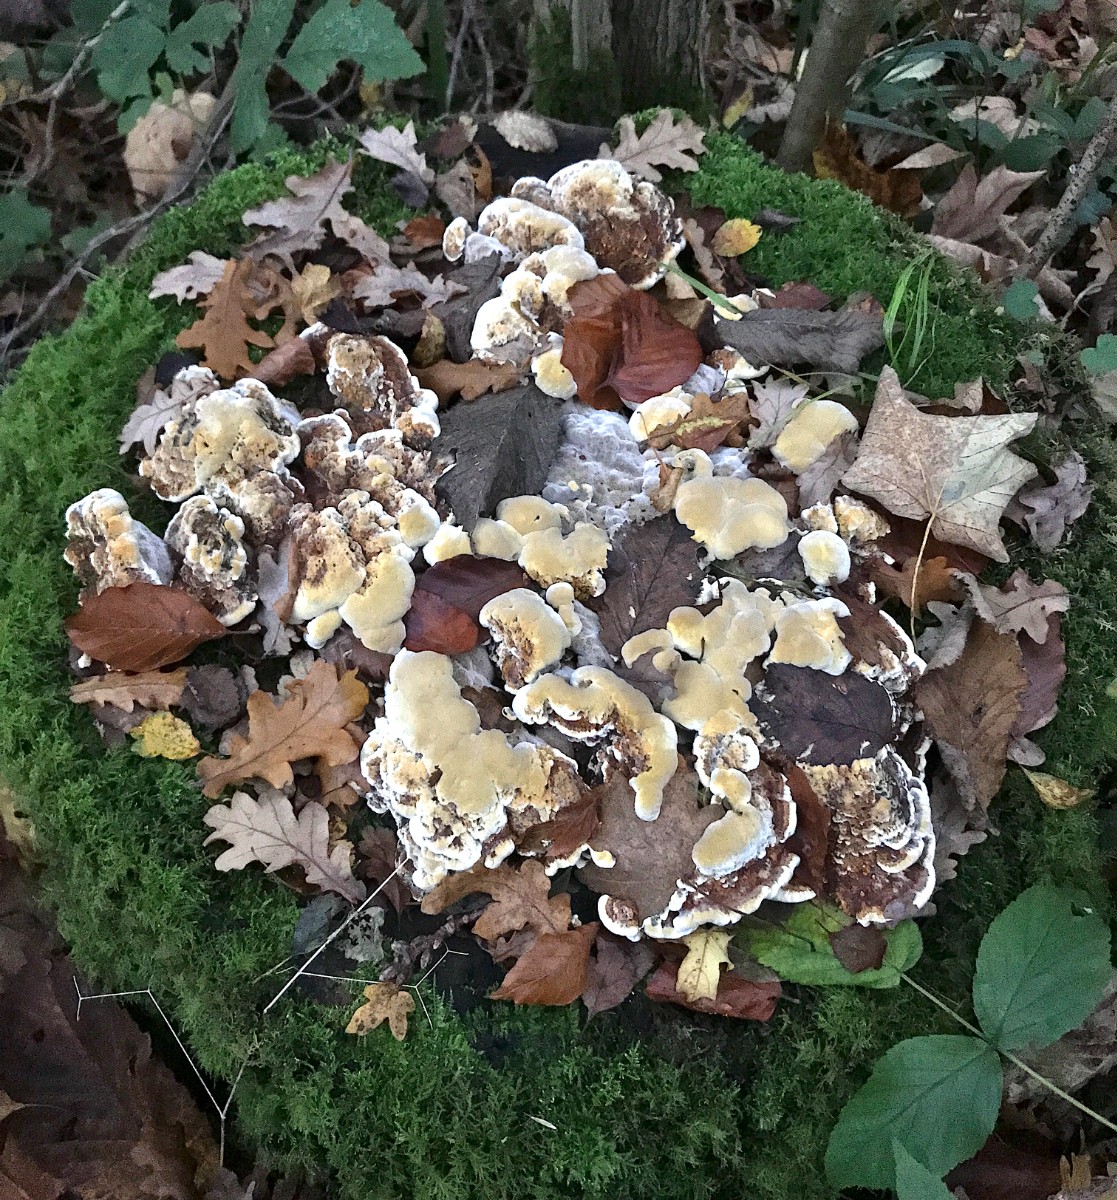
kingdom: Fungi
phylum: Basidiomycota
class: Agaricomycetes
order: Hymenochaetales
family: Hymenochaetaceae
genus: Xanthoporia
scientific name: Xanthoporia radiata
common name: elle-spejlporesvamp
